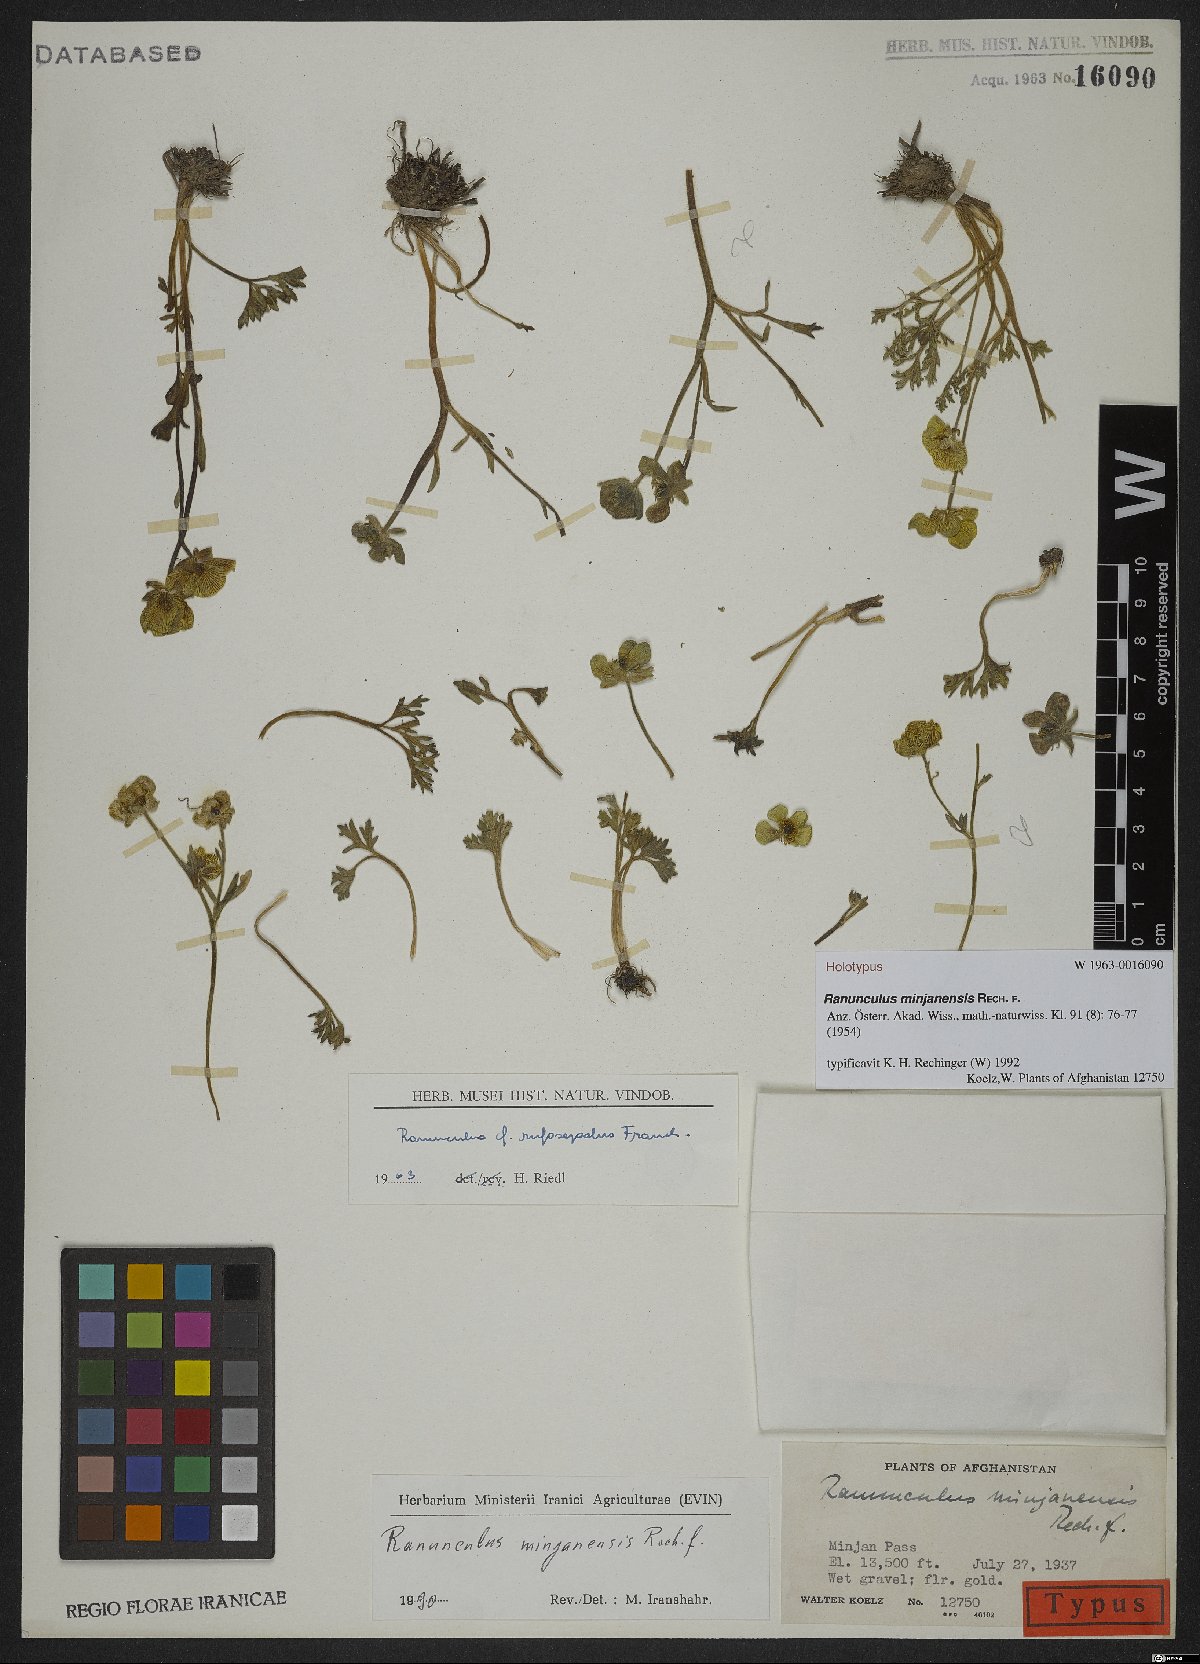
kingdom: Plantae
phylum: Tracheophyta
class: Magnoliopsida
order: Ranunculales
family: Ranunculaceae
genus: Ranunculus
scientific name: Ranunculus minjanensis
